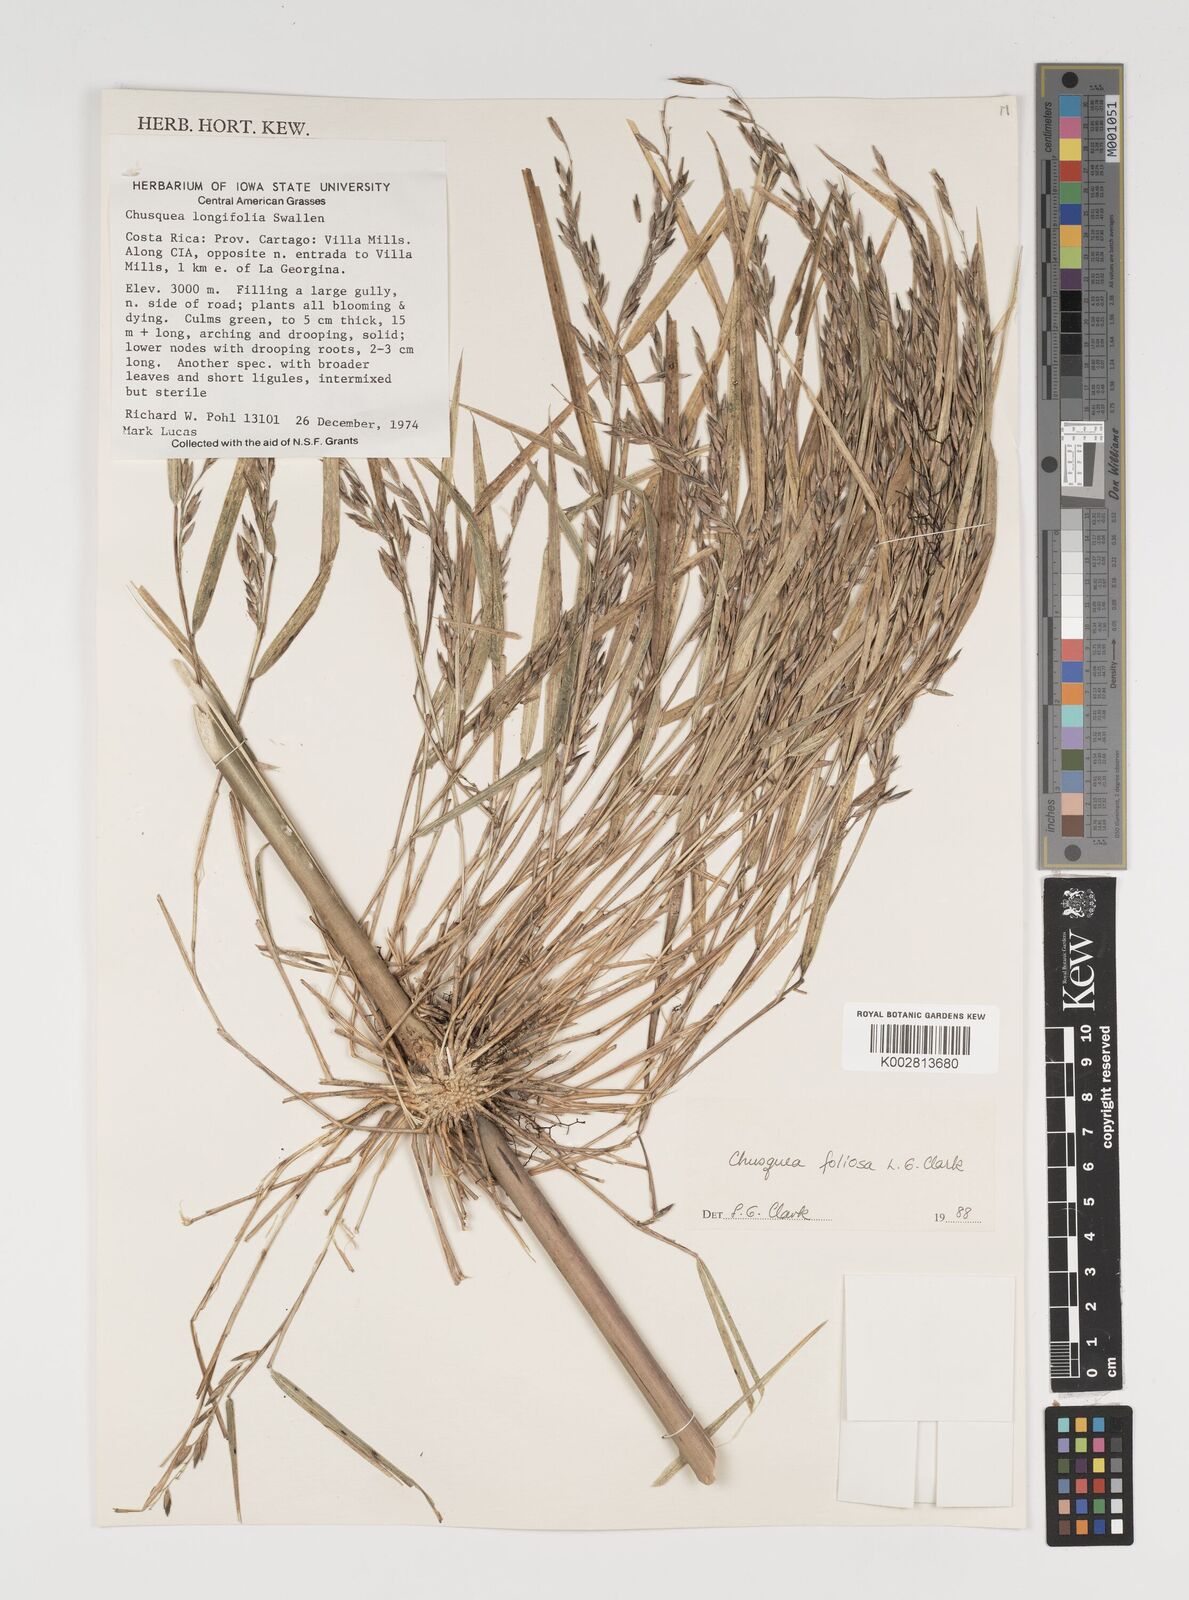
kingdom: Plantae
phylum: Tracheophyta
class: Liliopsida
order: Poales
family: Poaceae
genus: Chusquea
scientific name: Chusquea foliosa
